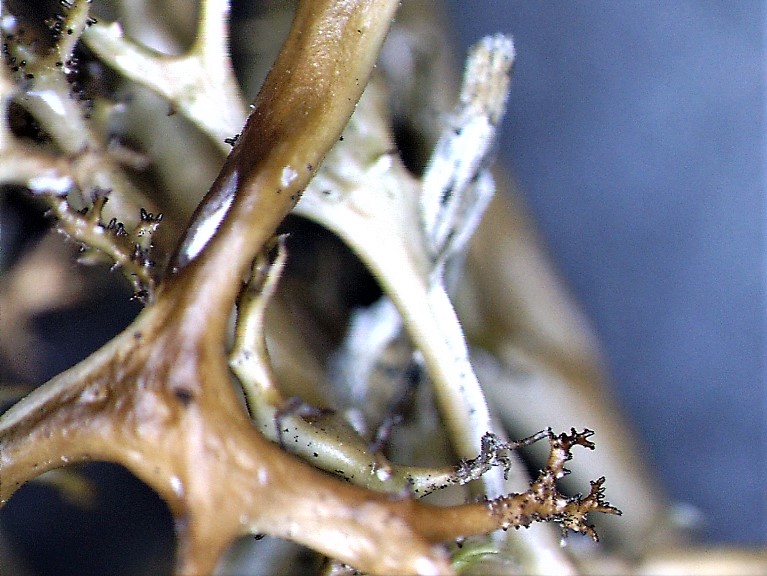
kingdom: Fungi
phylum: Ascomycota
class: Lecanoromycetes
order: Lecanorales
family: Parmeliaceae
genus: Cetraria
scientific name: Cetraria aculeata
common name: grubet tjørnelav
